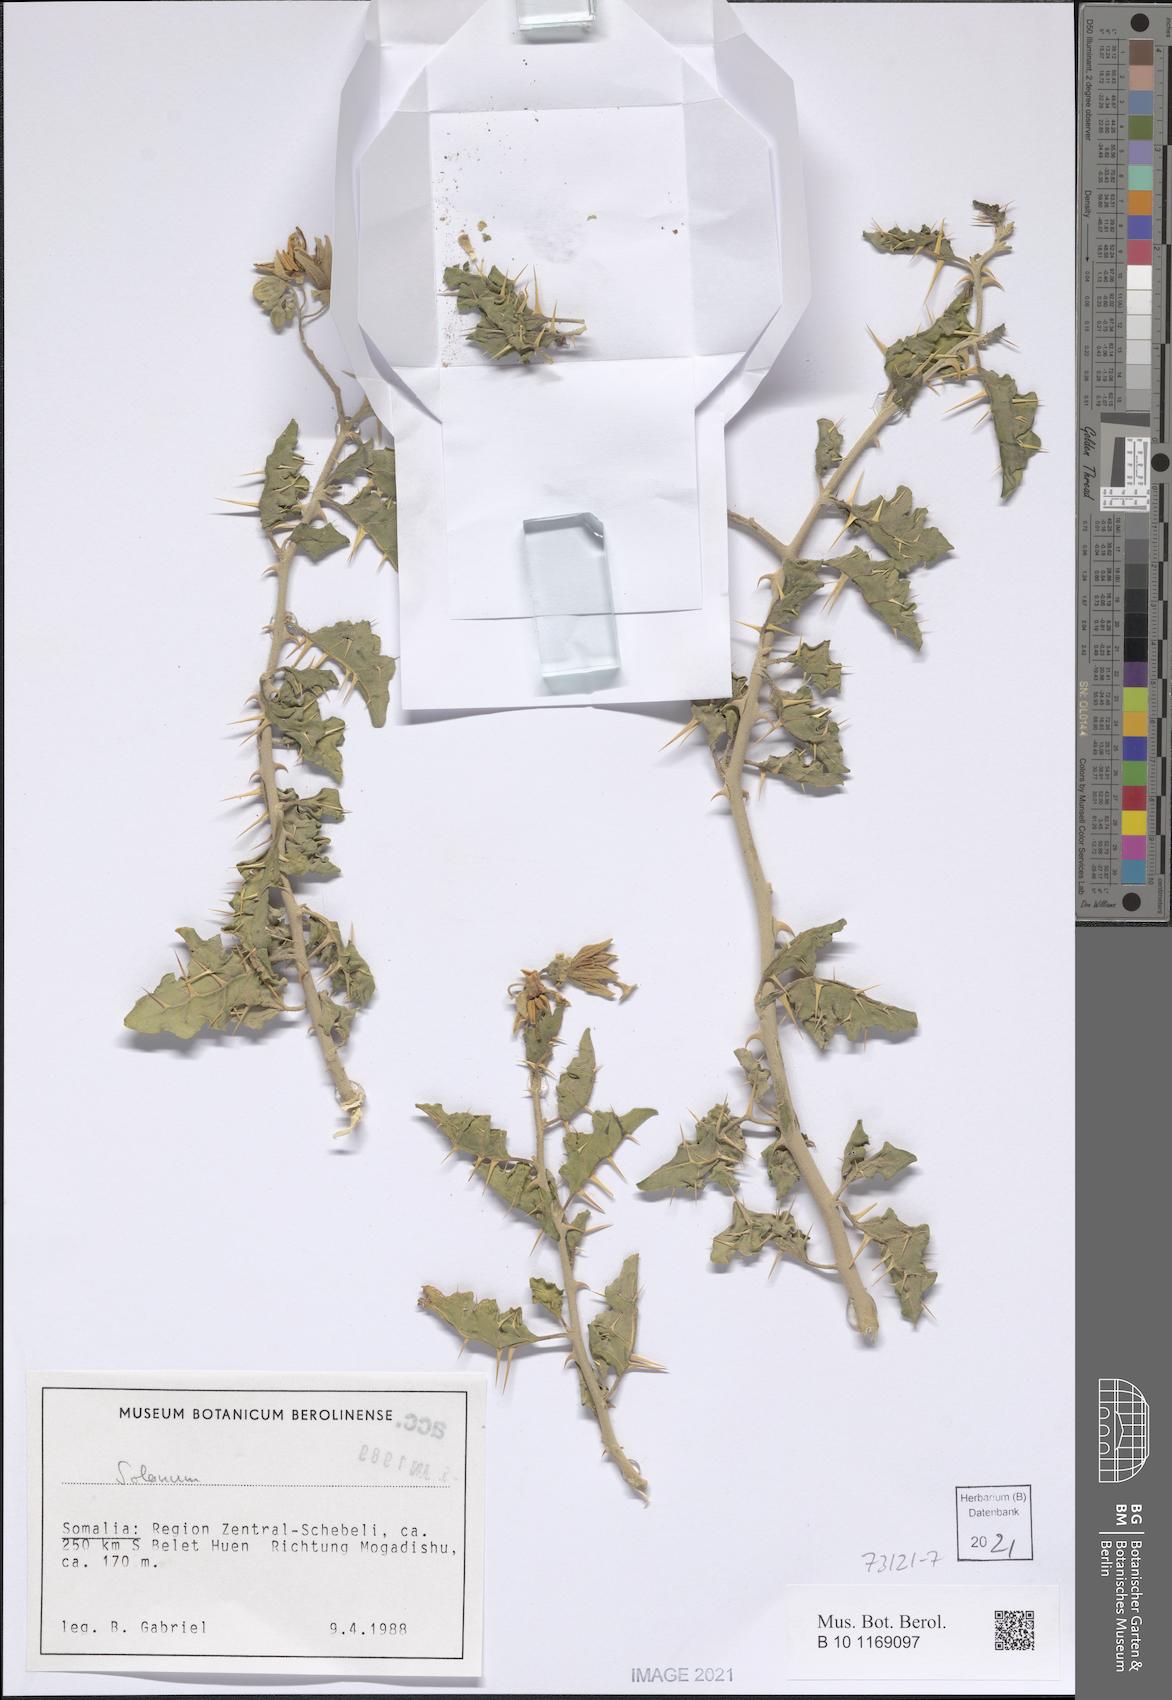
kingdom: Plantae
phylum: Tracheophyta
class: Magnoliopsida
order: Solanales
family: Solanaceae
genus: Solanum
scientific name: Solanum
